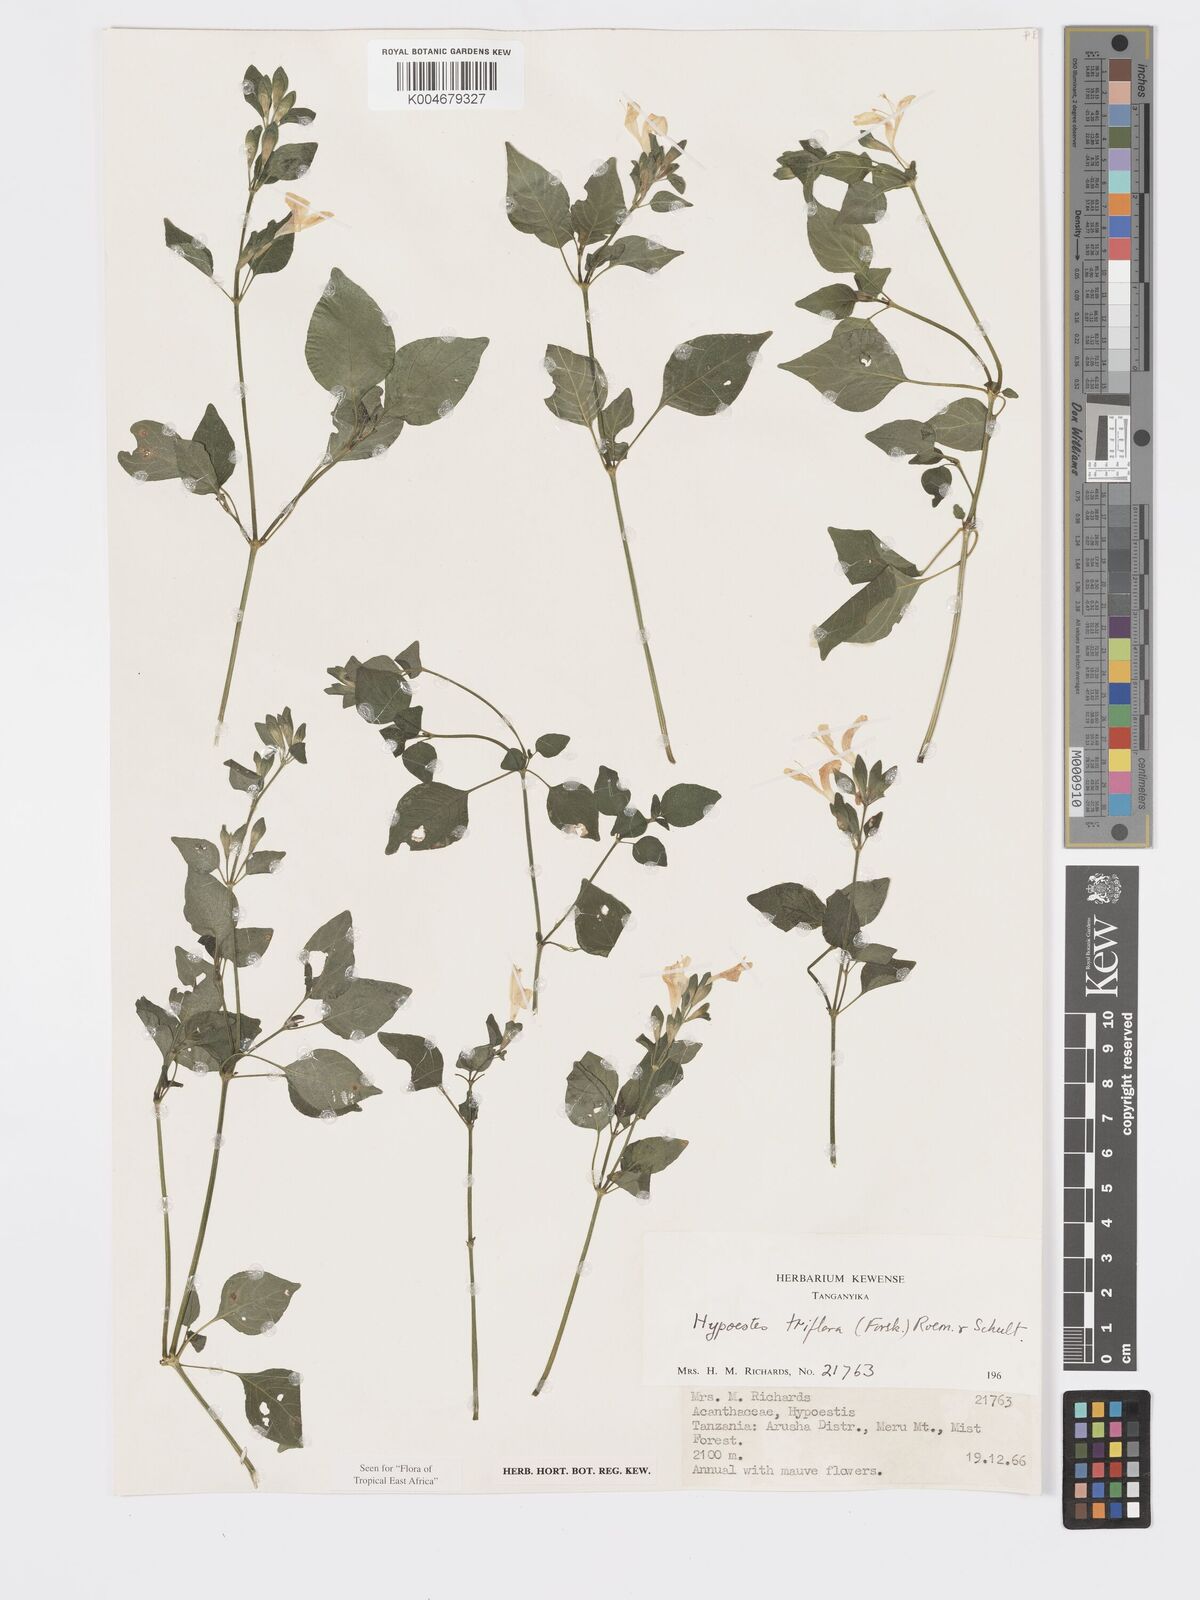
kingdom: Plantae
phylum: Tracheophyta
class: Magnoliopsida
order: Lamiales
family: Acanthaceae
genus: Hypoestes
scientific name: Hypoestes triflora
